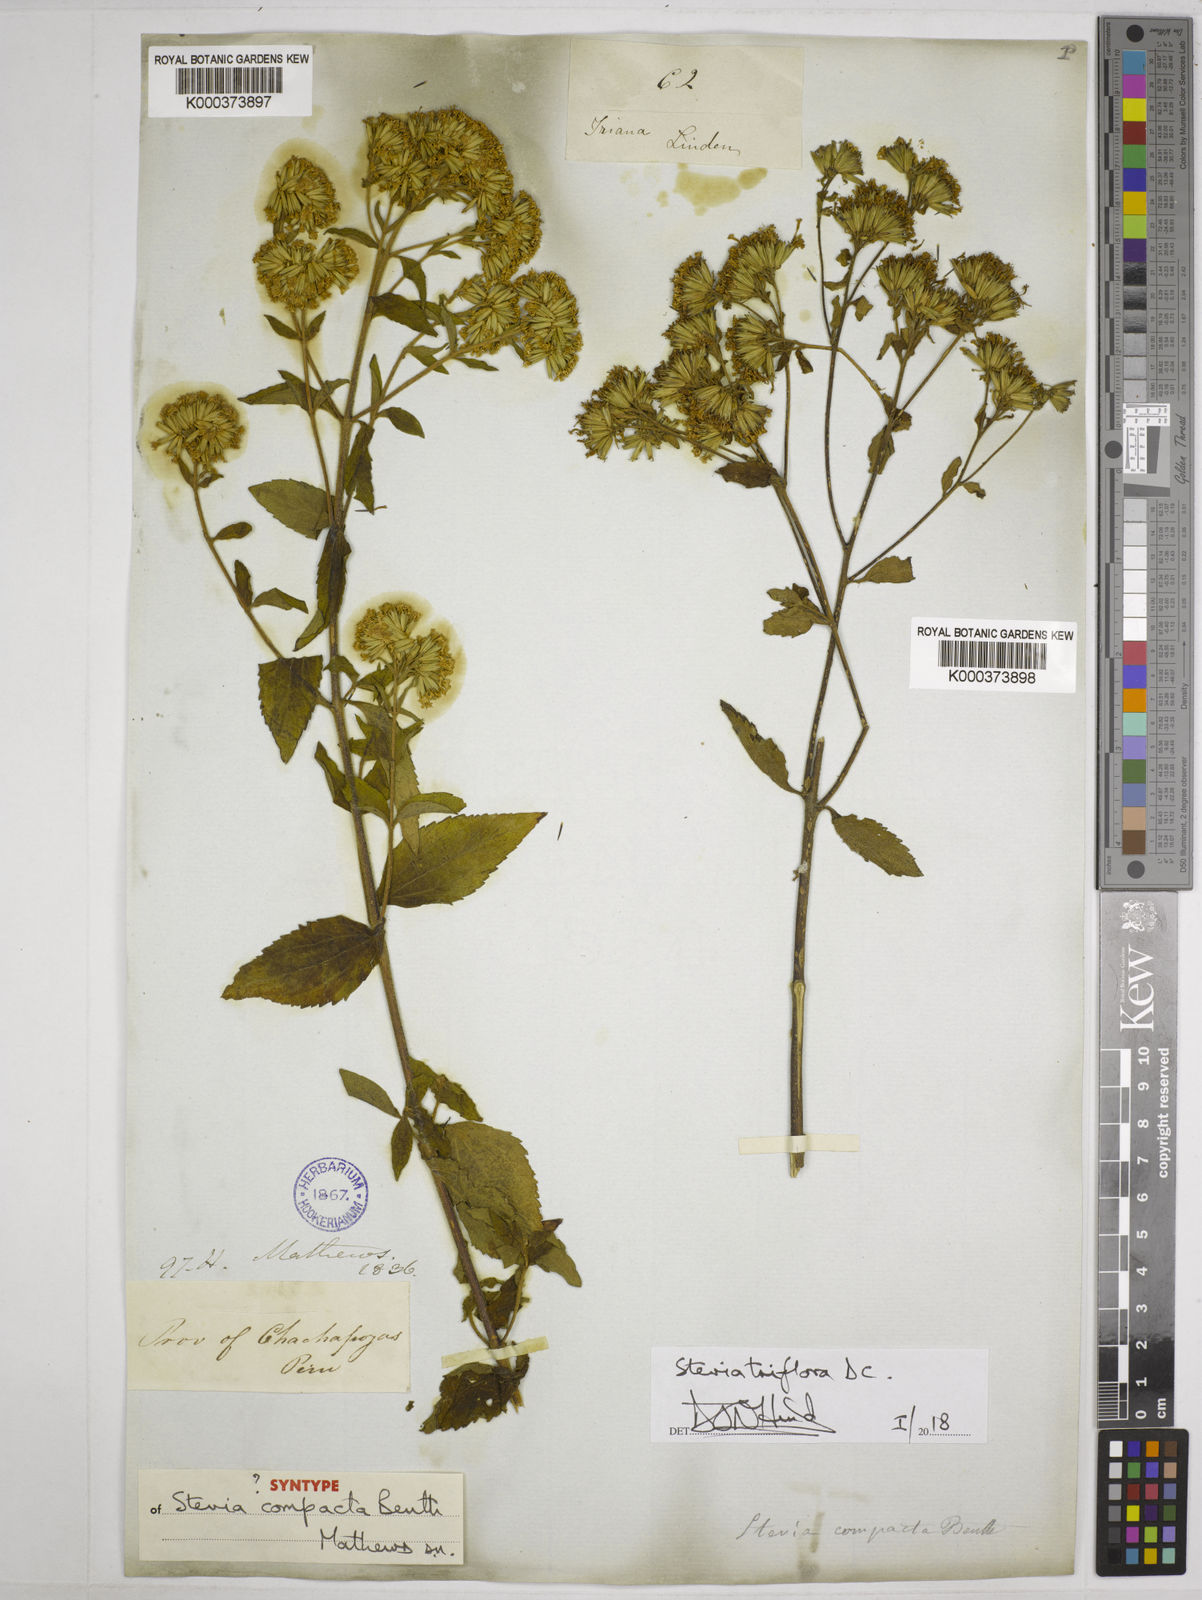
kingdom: Plantae
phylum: Tracheophyta
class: Magnoliopsida
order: Asterales
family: Asteraceae
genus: Stevia
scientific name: Stevia triflora
